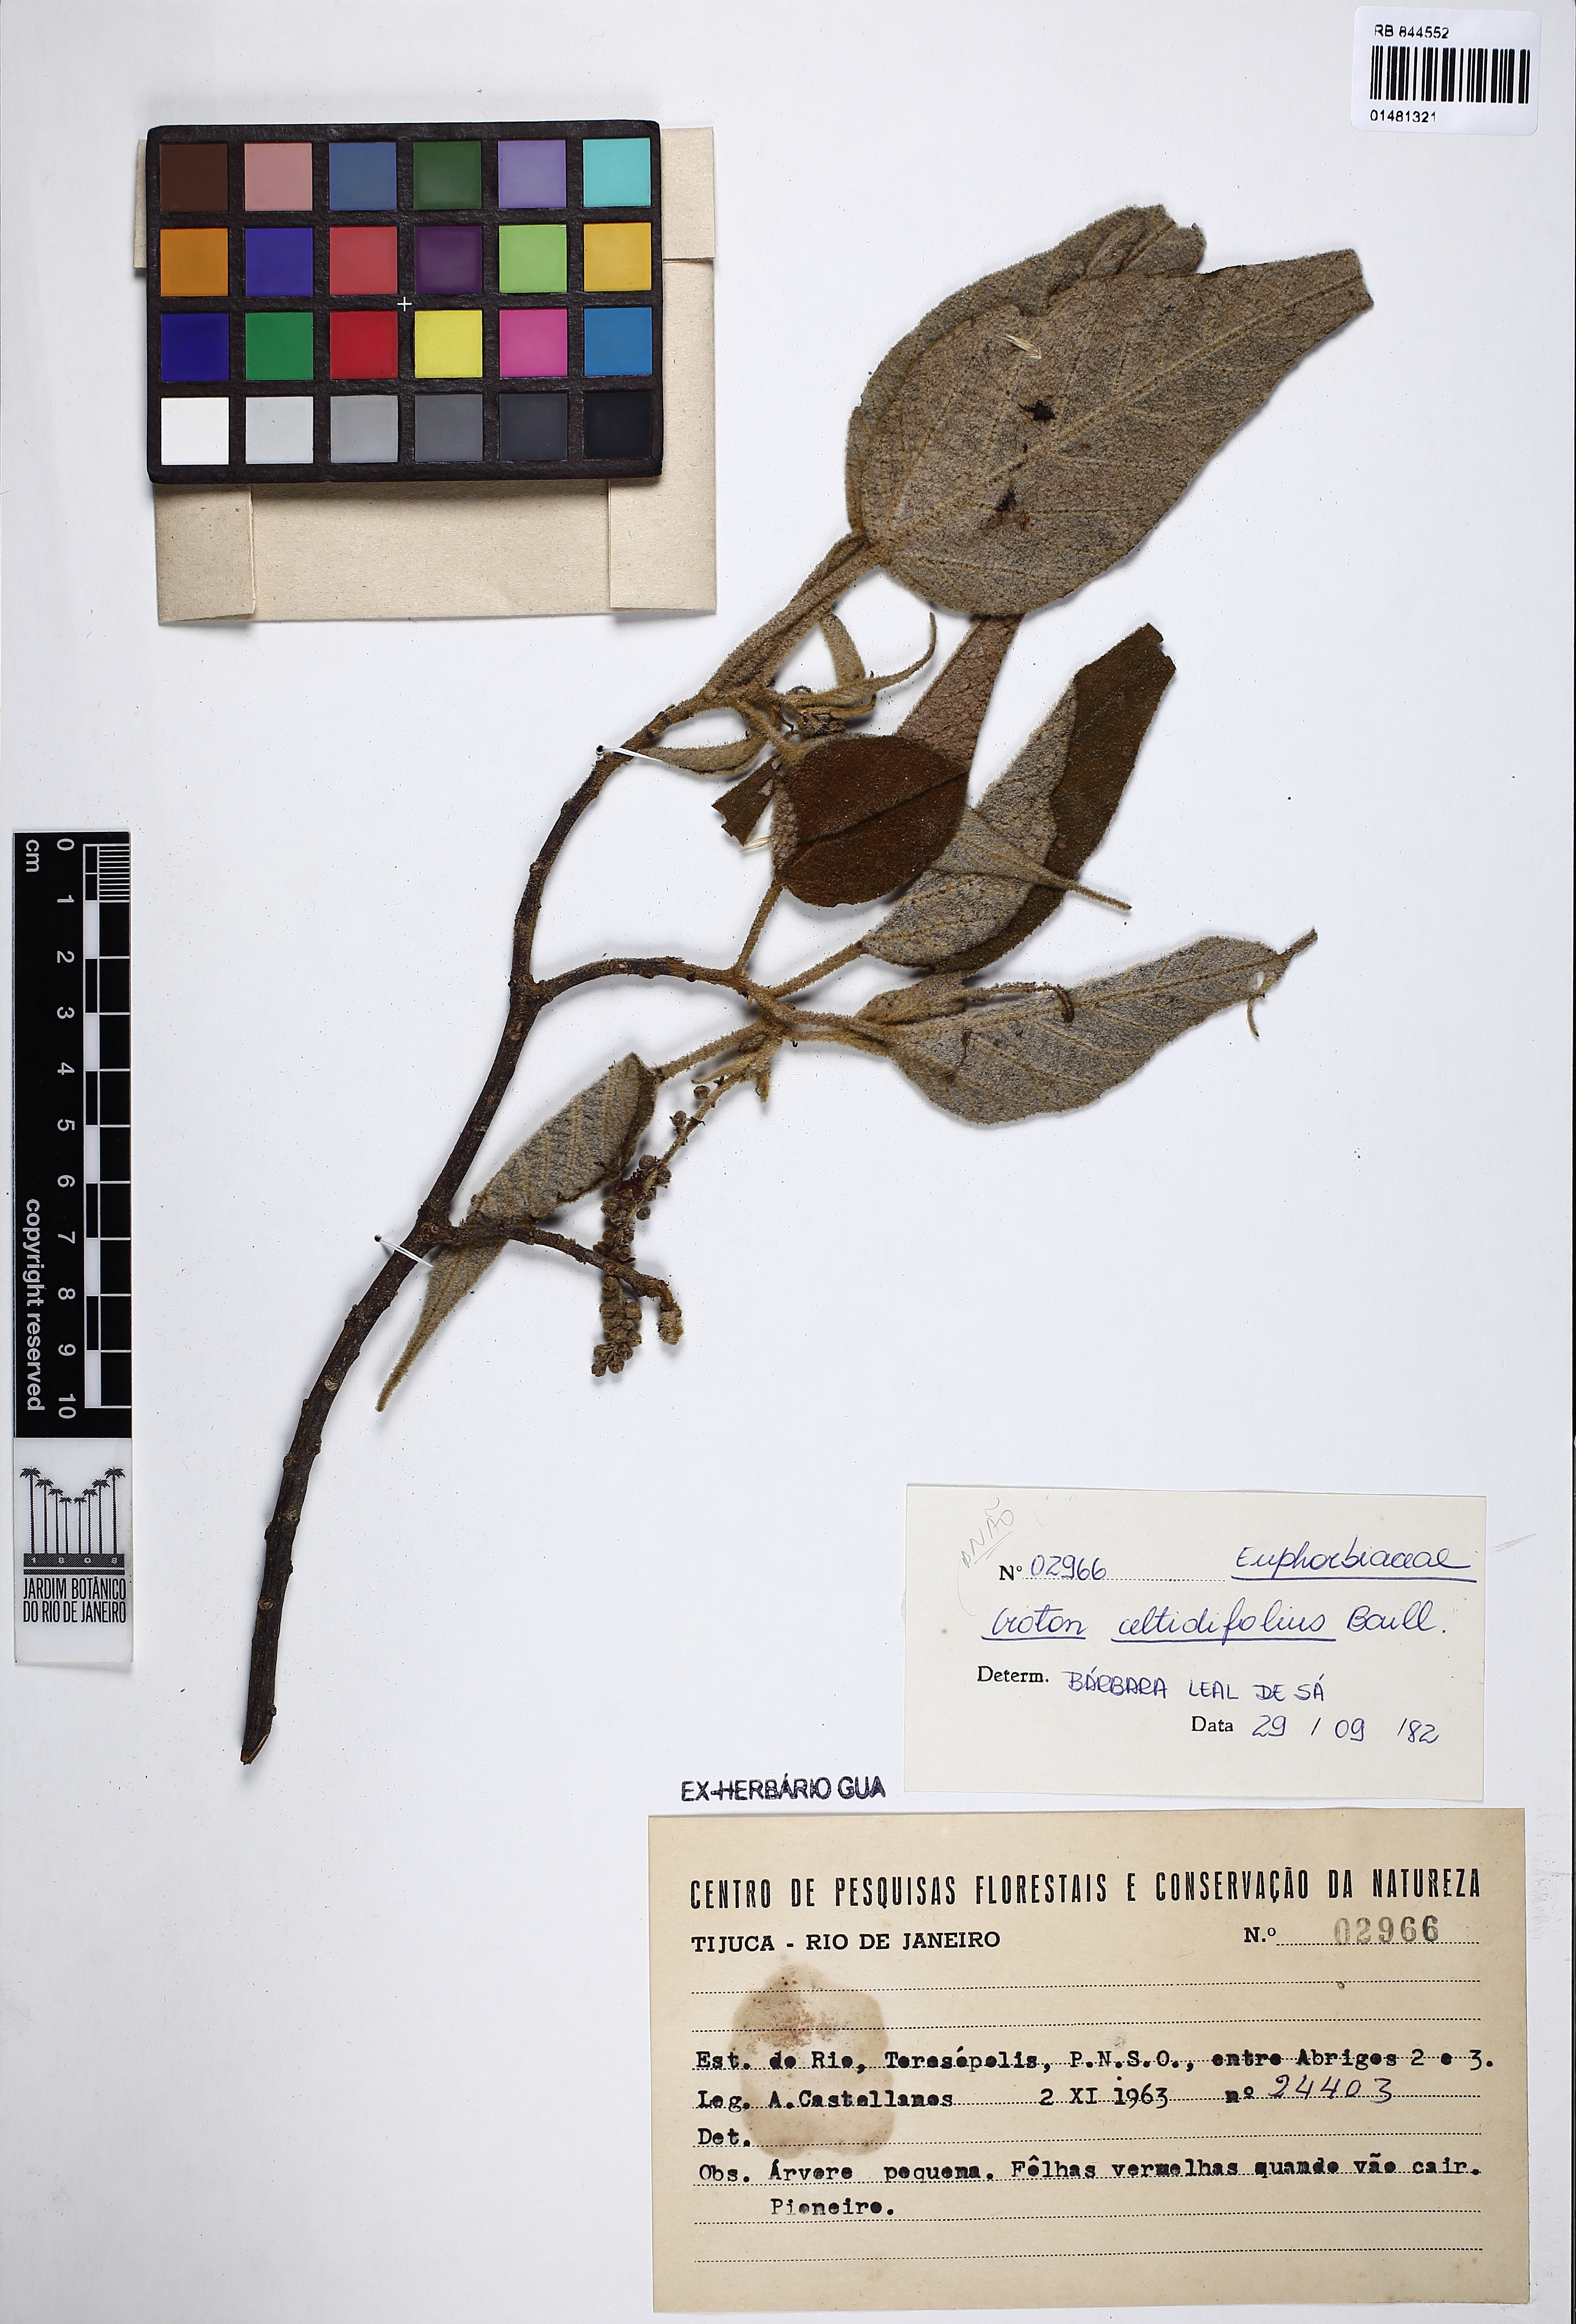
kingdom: Plantae
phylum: Tracheophyta
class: Magnoliopsida
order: Malpighiales
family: Euphorbiaceae
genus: Croton
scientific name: Croton celtidifolius
